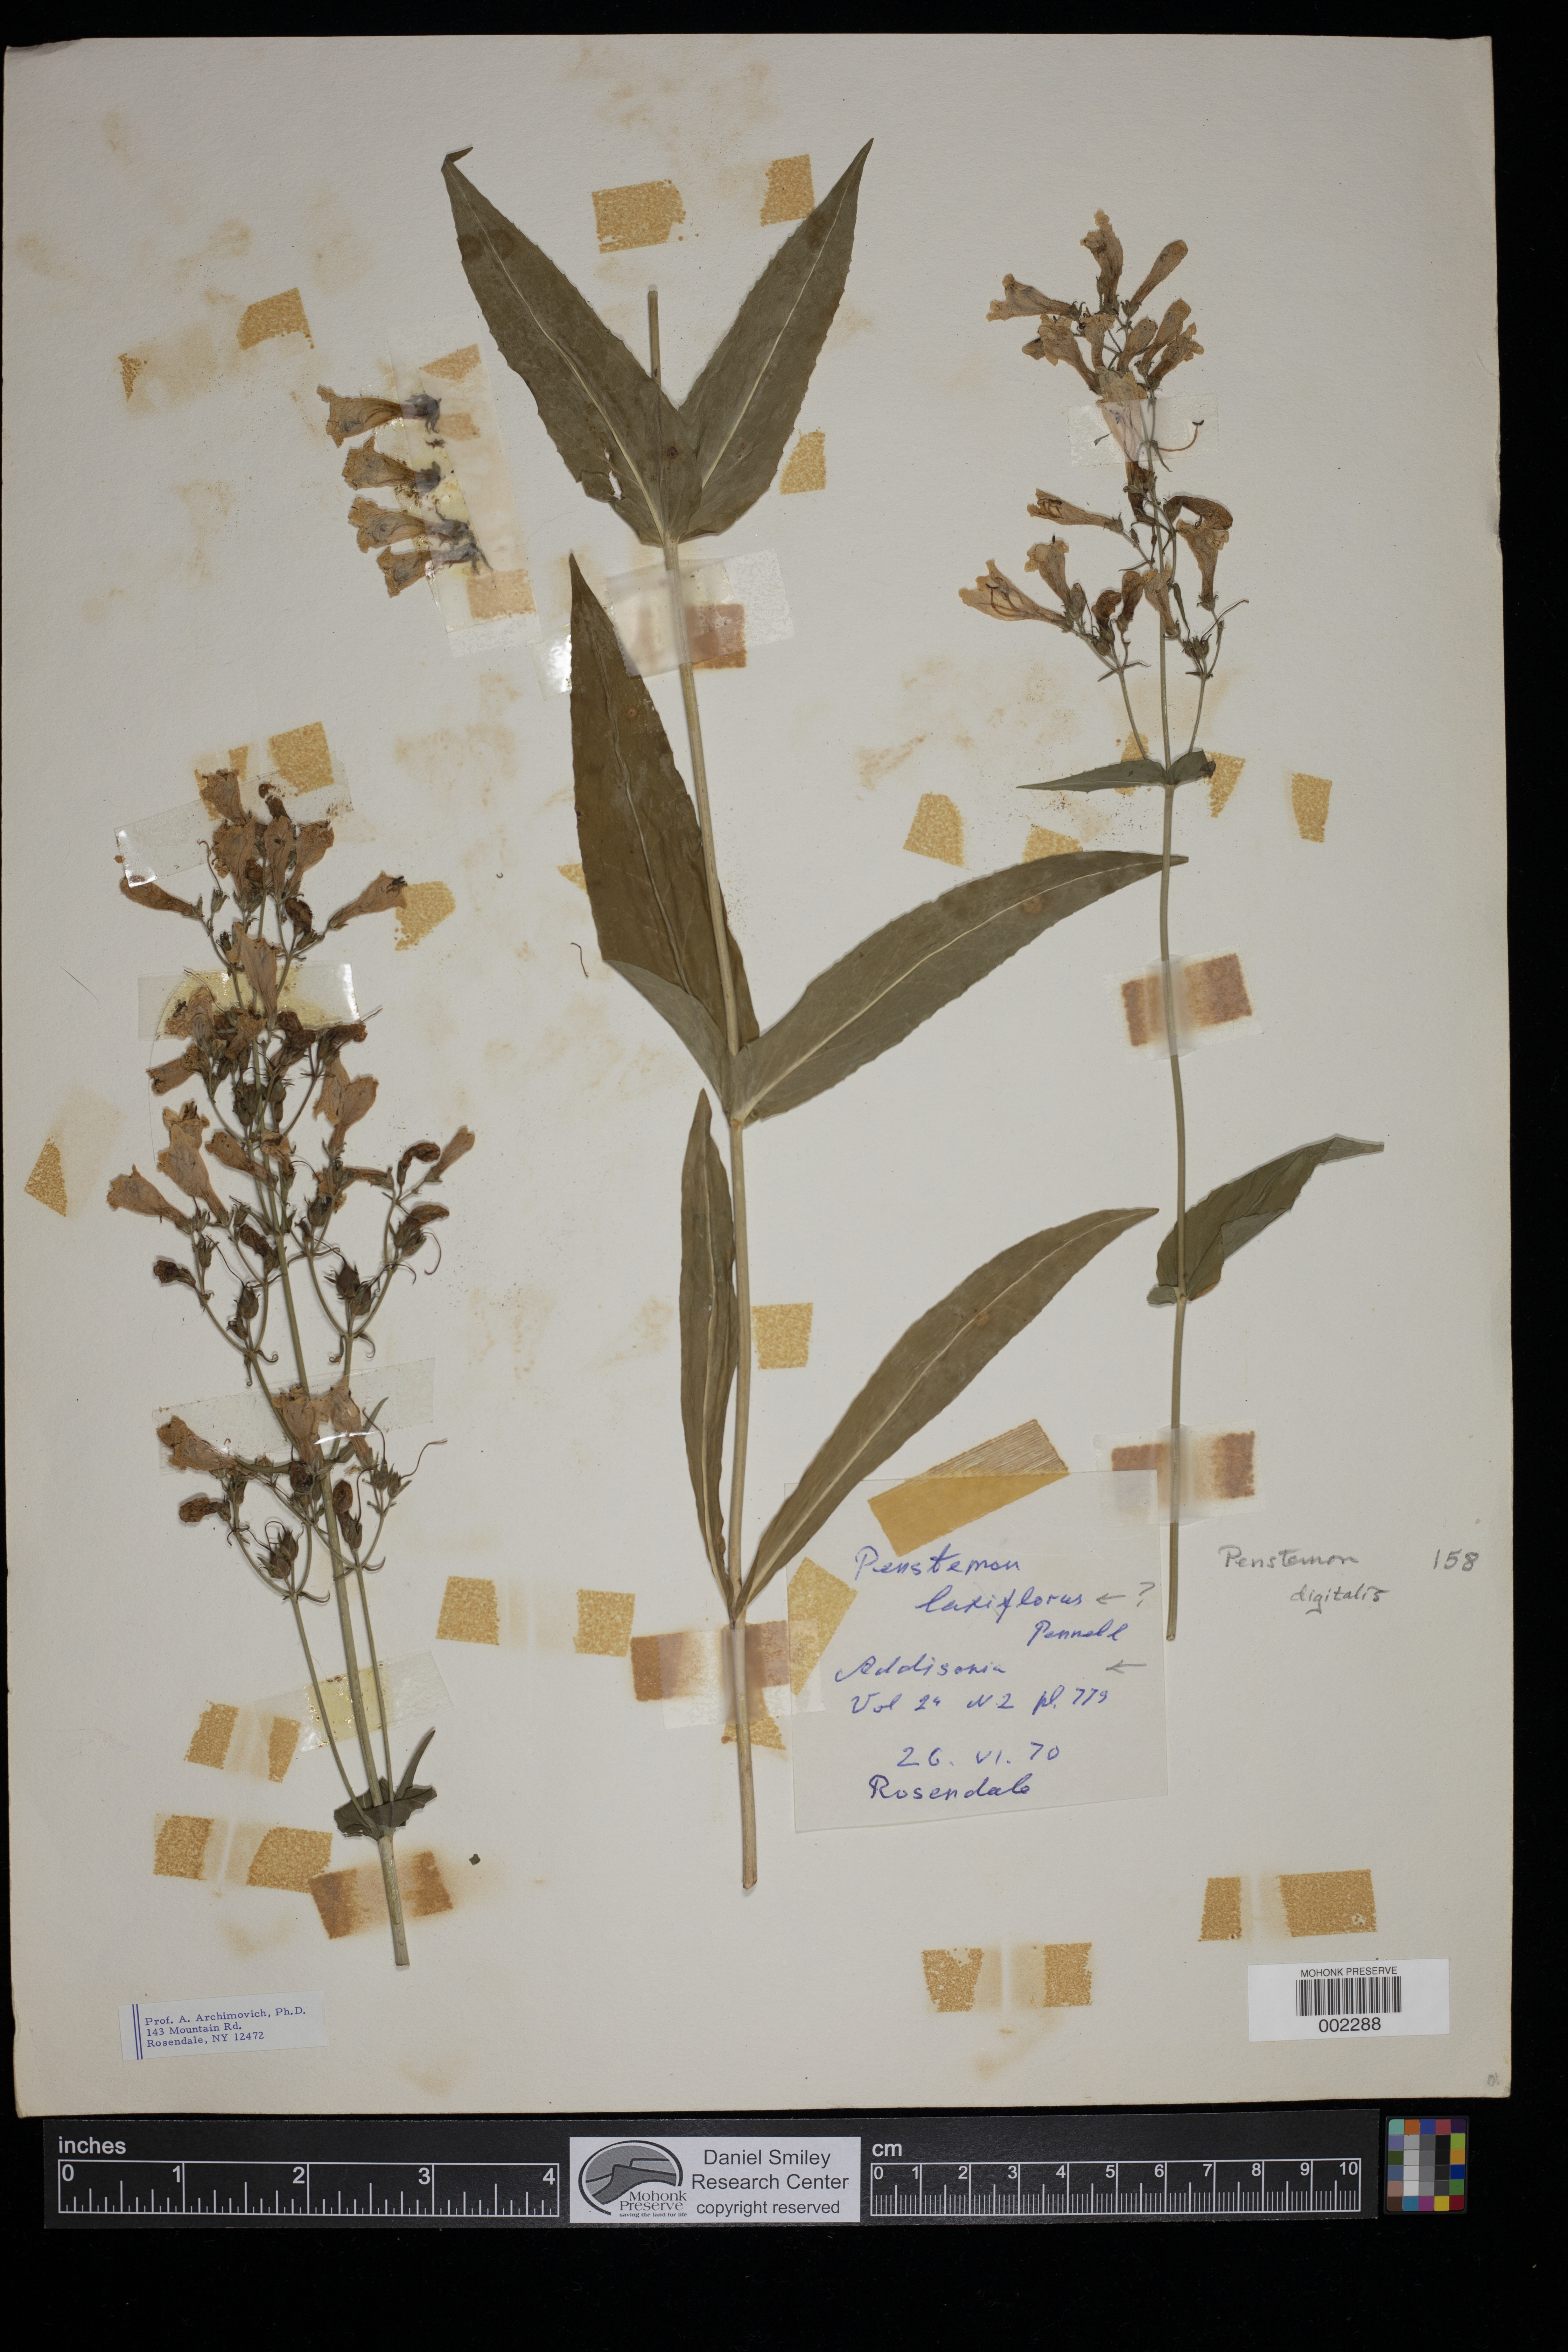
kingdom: Plantae
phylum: Tracheophyta
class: Magnoliopsida
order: Lamiales
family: Plantaginaceae
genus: Penstemon
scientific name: Penstemon digitalis
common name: Foxglove beardtongue
